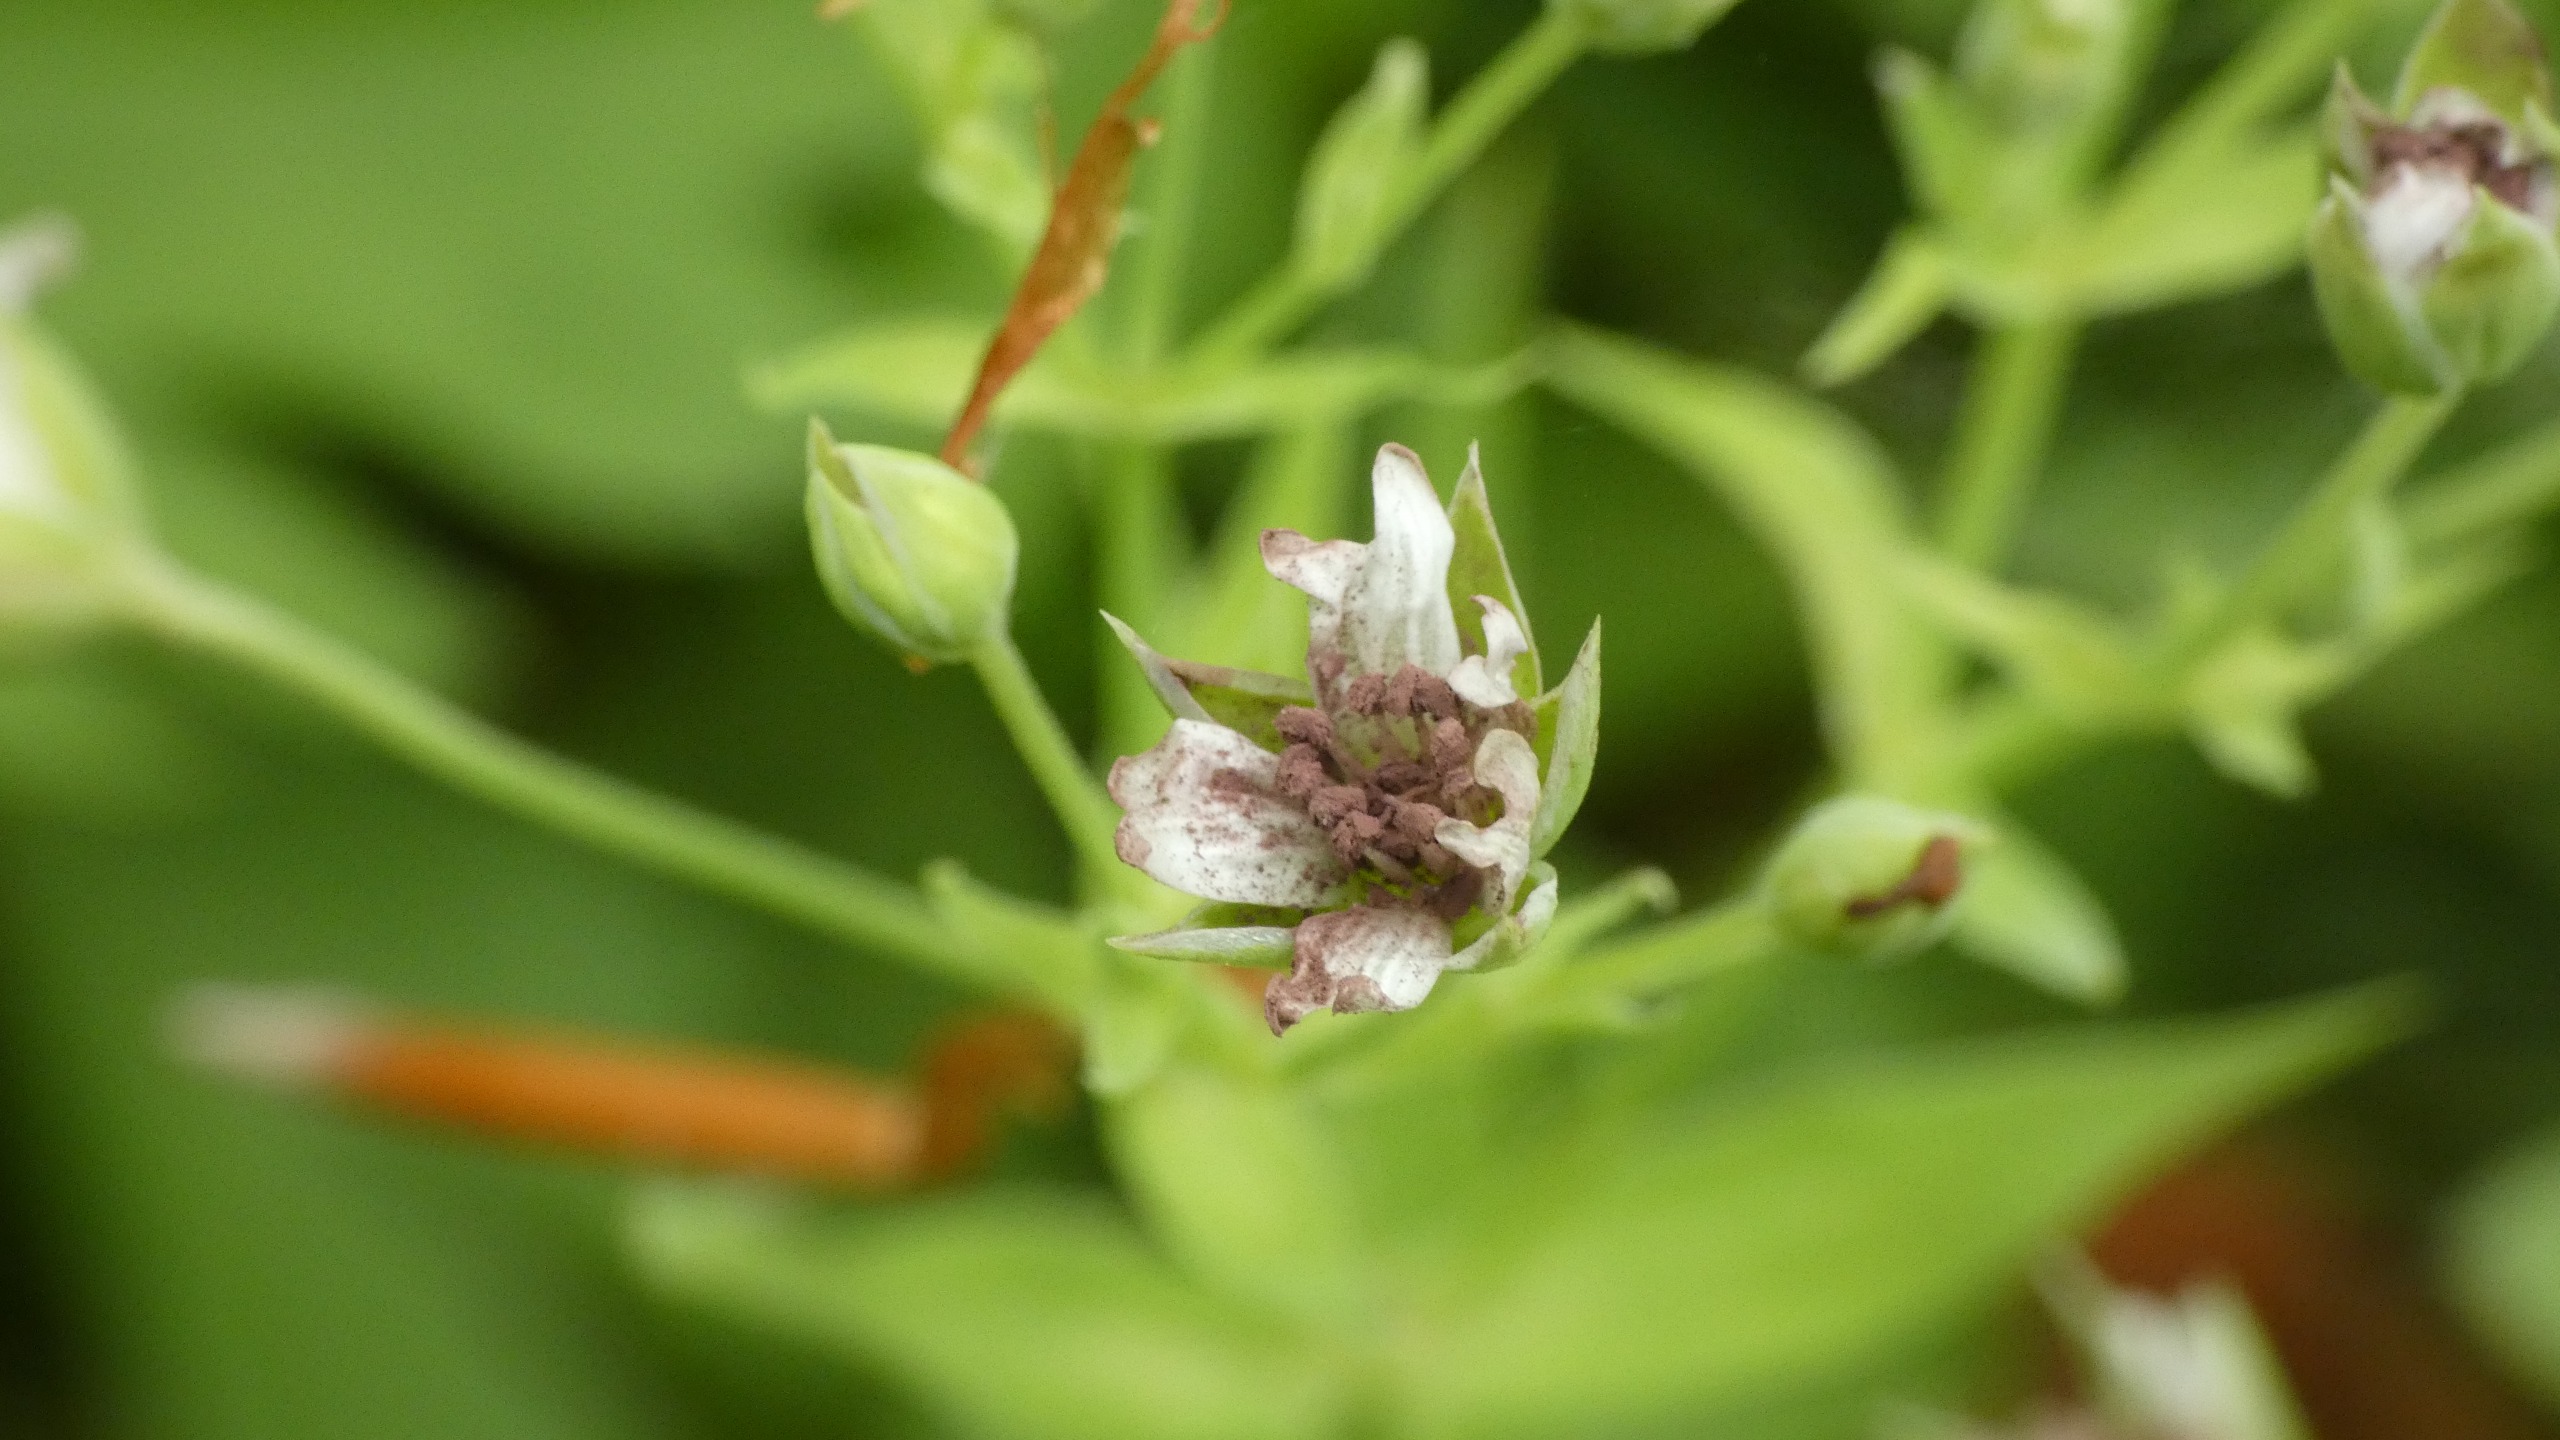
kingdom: Fungi
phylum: Basidiomycota
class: Microbotryomycetes
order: Microbotryales
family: Microbotryaceae
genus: Microbotryum
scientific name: Microbotryum stellariae
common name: Fladstjerne-støvbladrust
